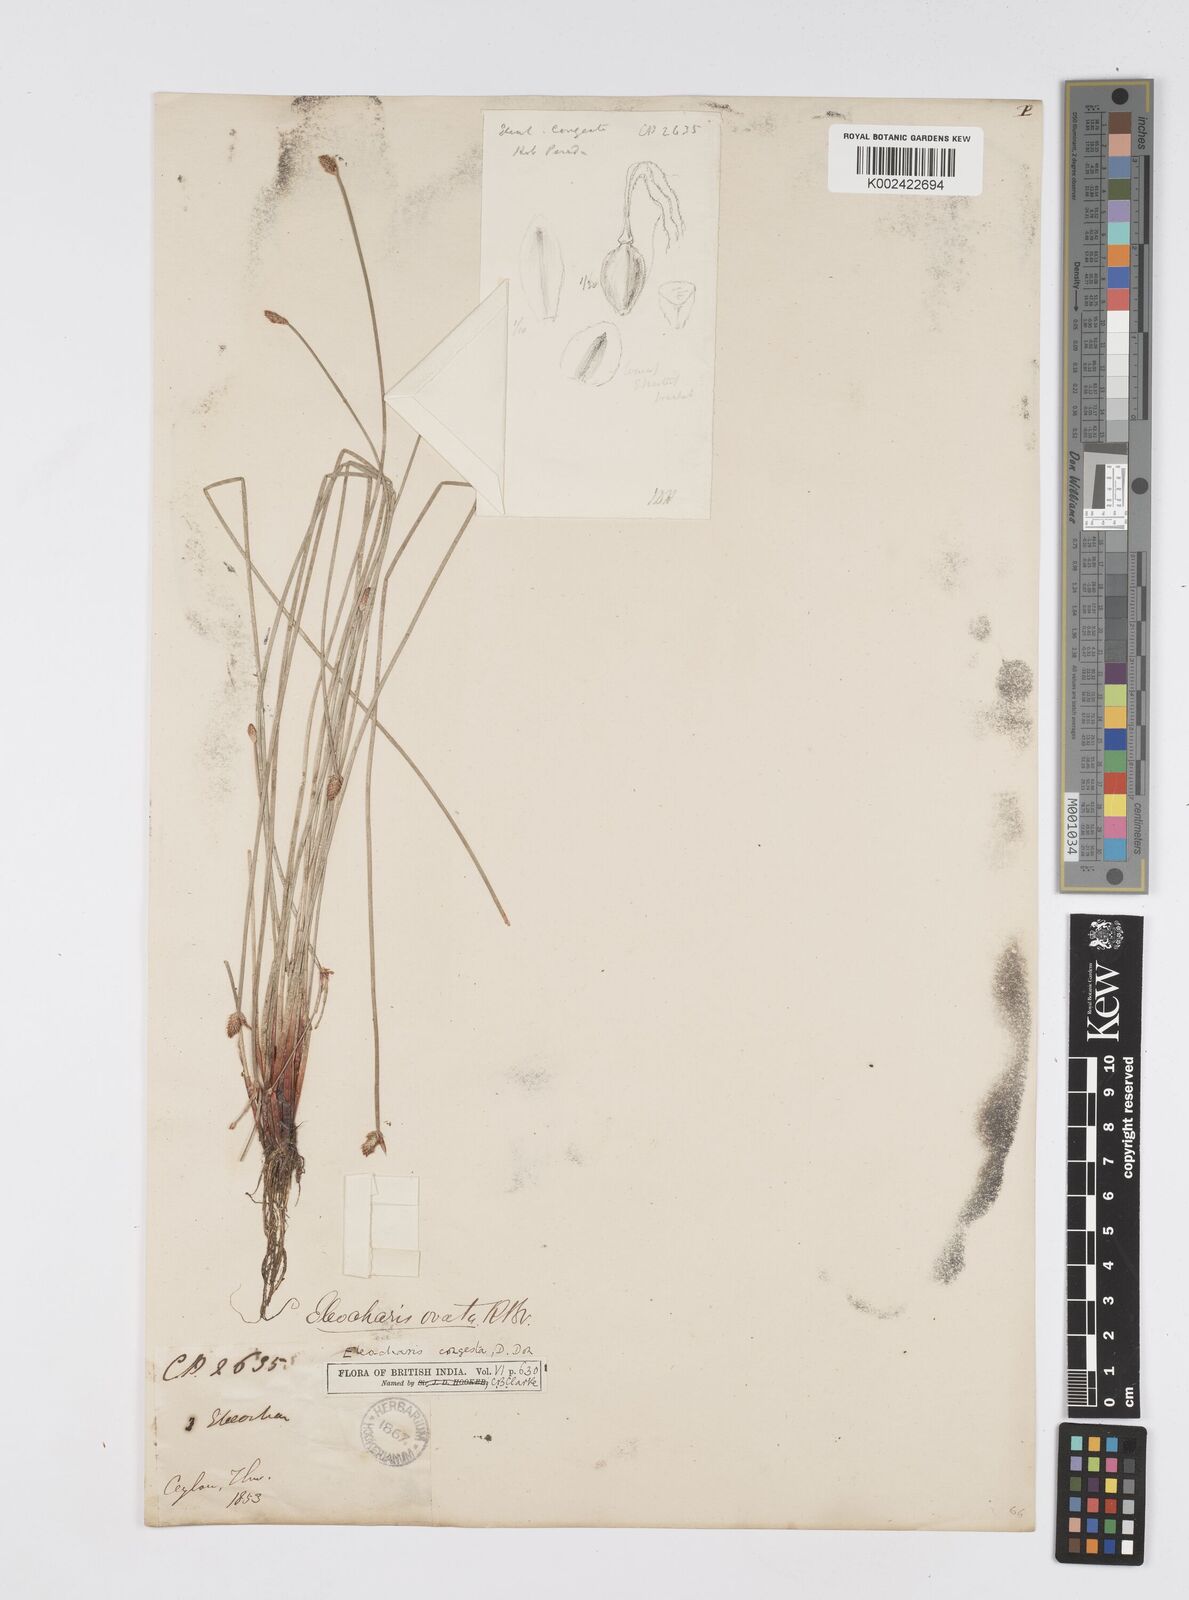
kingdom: Plantae
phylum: Tracheophyta
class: Liliopsida
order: Poales
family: Cyperaceae
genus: Eleocharis
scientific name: Eleocharis congesta
